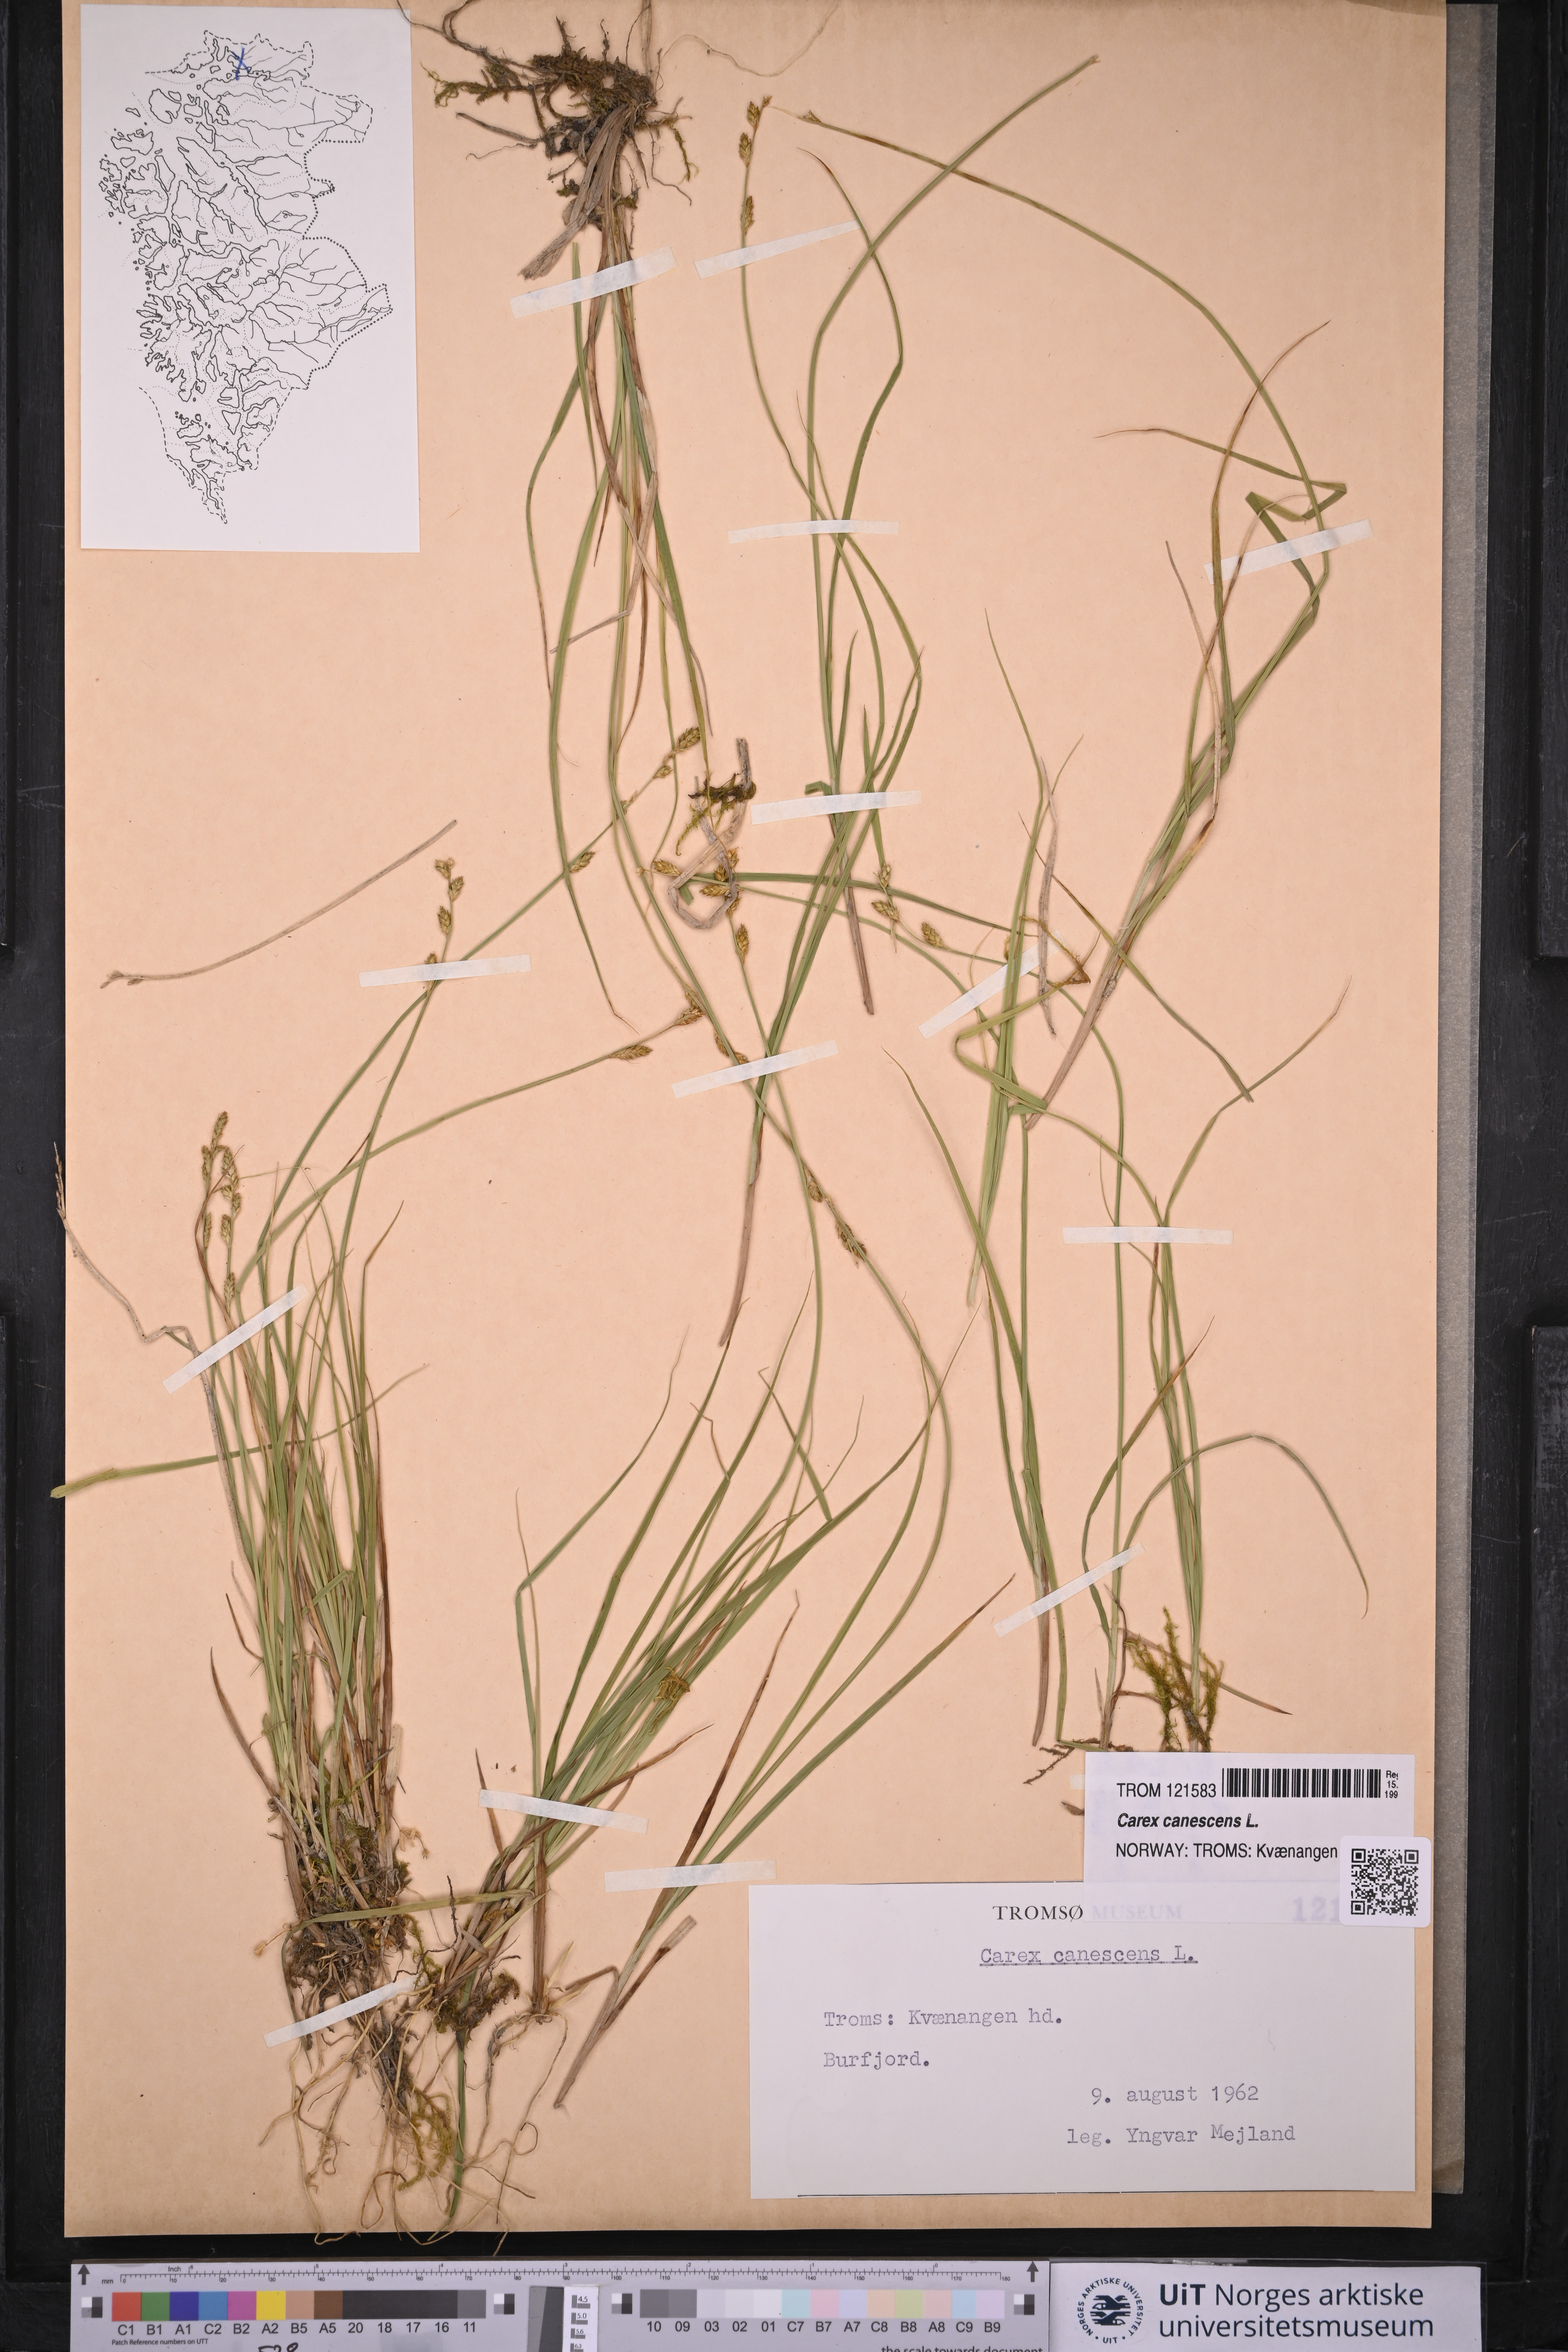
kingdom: Plantae
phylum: Tracheophyta
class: Liliopsida
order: Poales
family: Cyperaceae
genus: Carex
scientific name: Carex canescens
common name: White sedge
